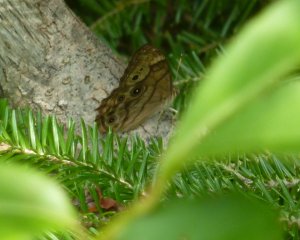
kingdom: Animalia
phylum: Arthropoda
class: Insecta
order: Lepidoptera
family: Nymphalidae
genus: Lethe
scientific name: Lethe anthedon
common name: Northern Pearly-Eye
